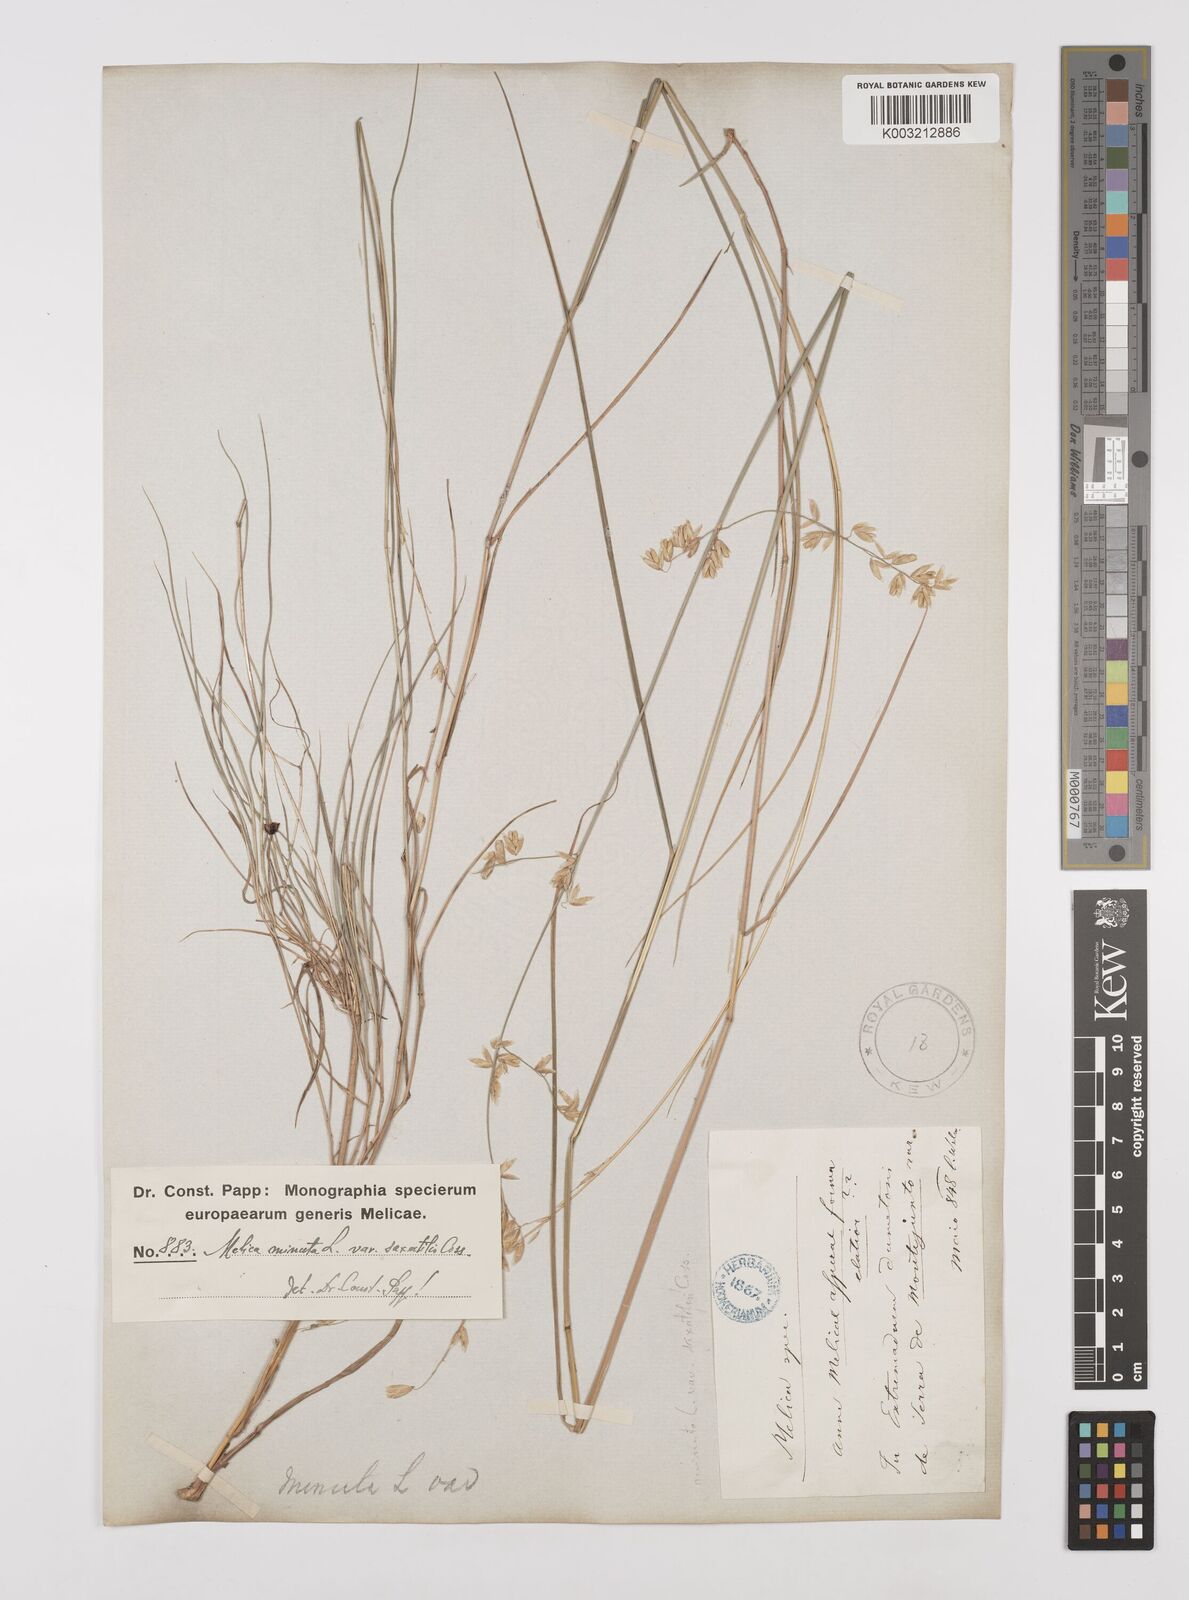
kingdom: Plantae
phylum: Tracheophyta
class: Liliopsida
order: Poales
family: Poaceae
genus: Melica
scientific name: Melica minuta
